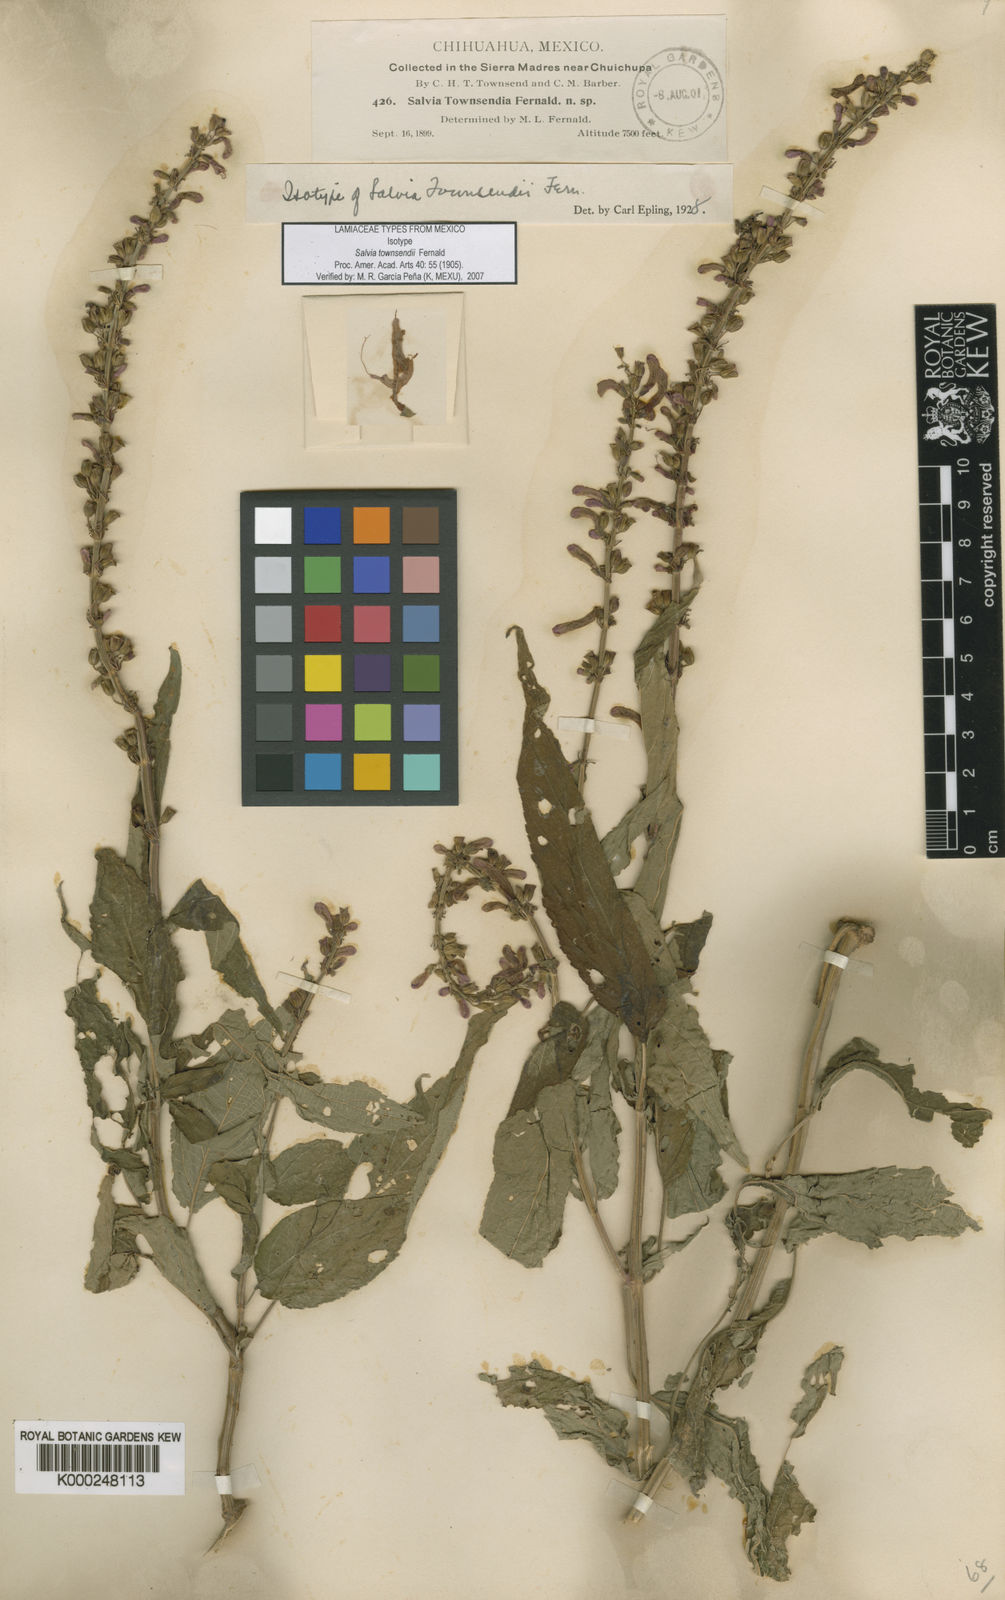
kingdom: Plantae
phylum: Tracheophyta
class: Magnoliopsida
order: Lamiales
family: Lamiaceae
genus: Salvia
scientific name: Salvia townsendii
